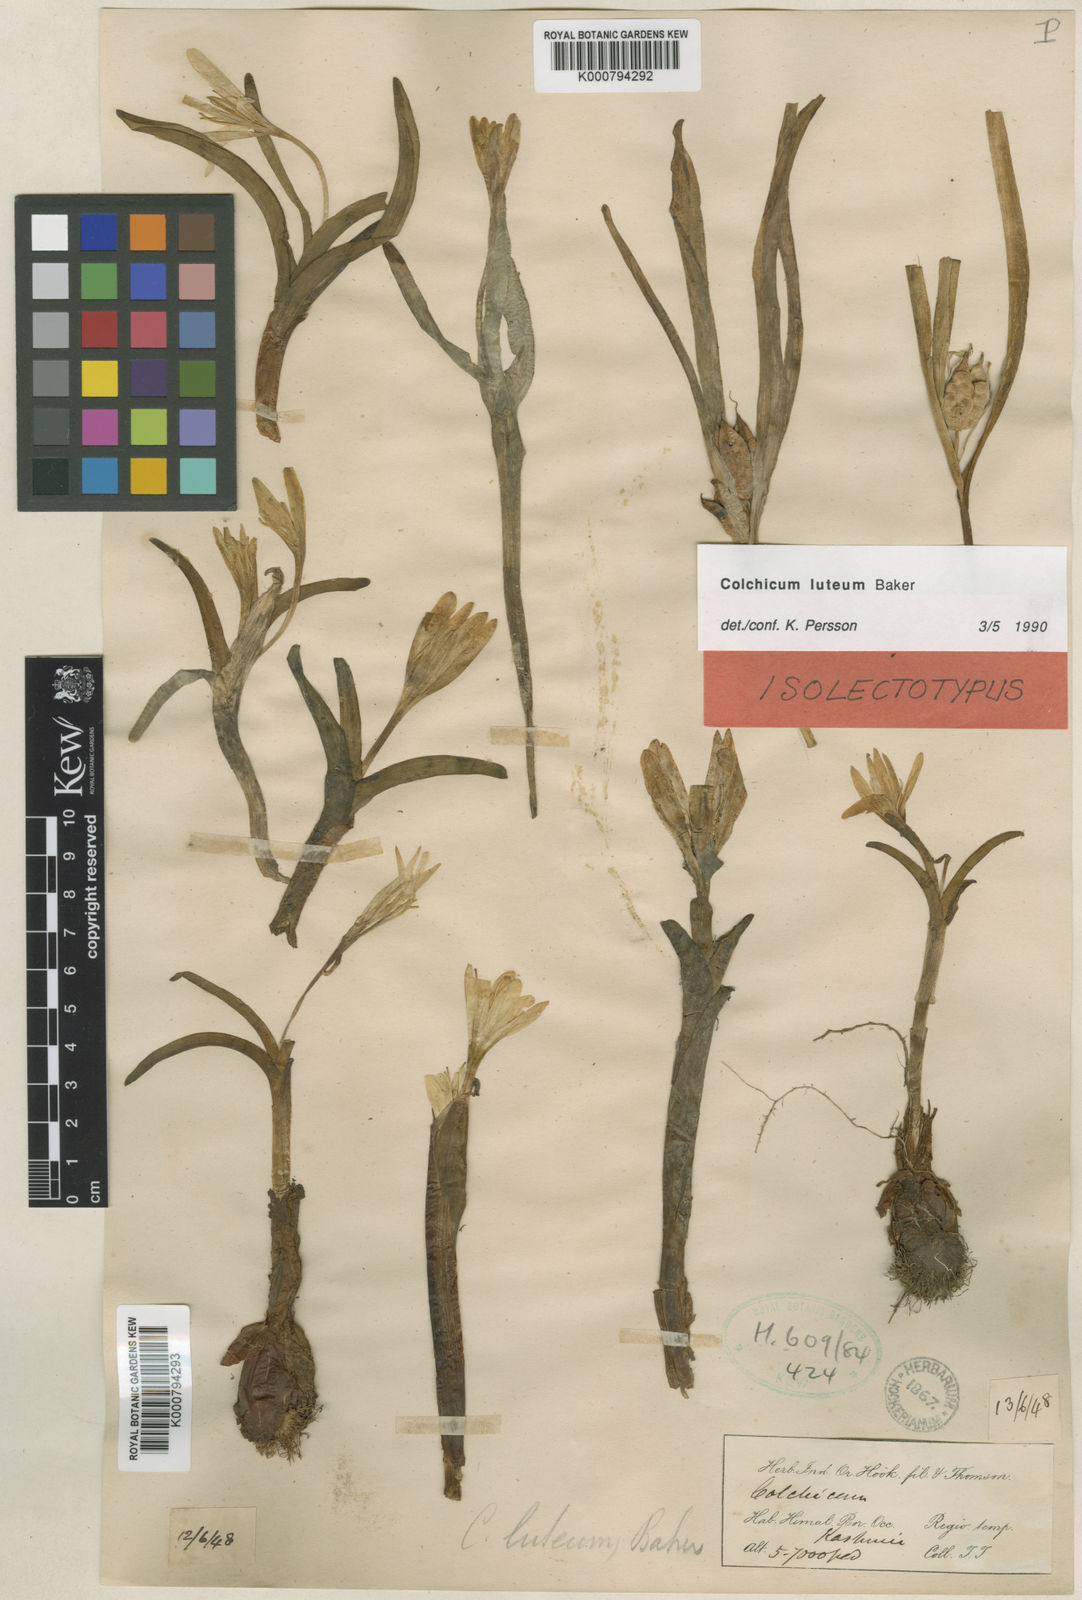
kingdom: Plantae
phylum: Tracheophyta
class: Liliopsida
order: Liliales
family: Colchicaceae
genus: Colchicum
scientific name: Colchicum luteum
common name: Indian colchicum
